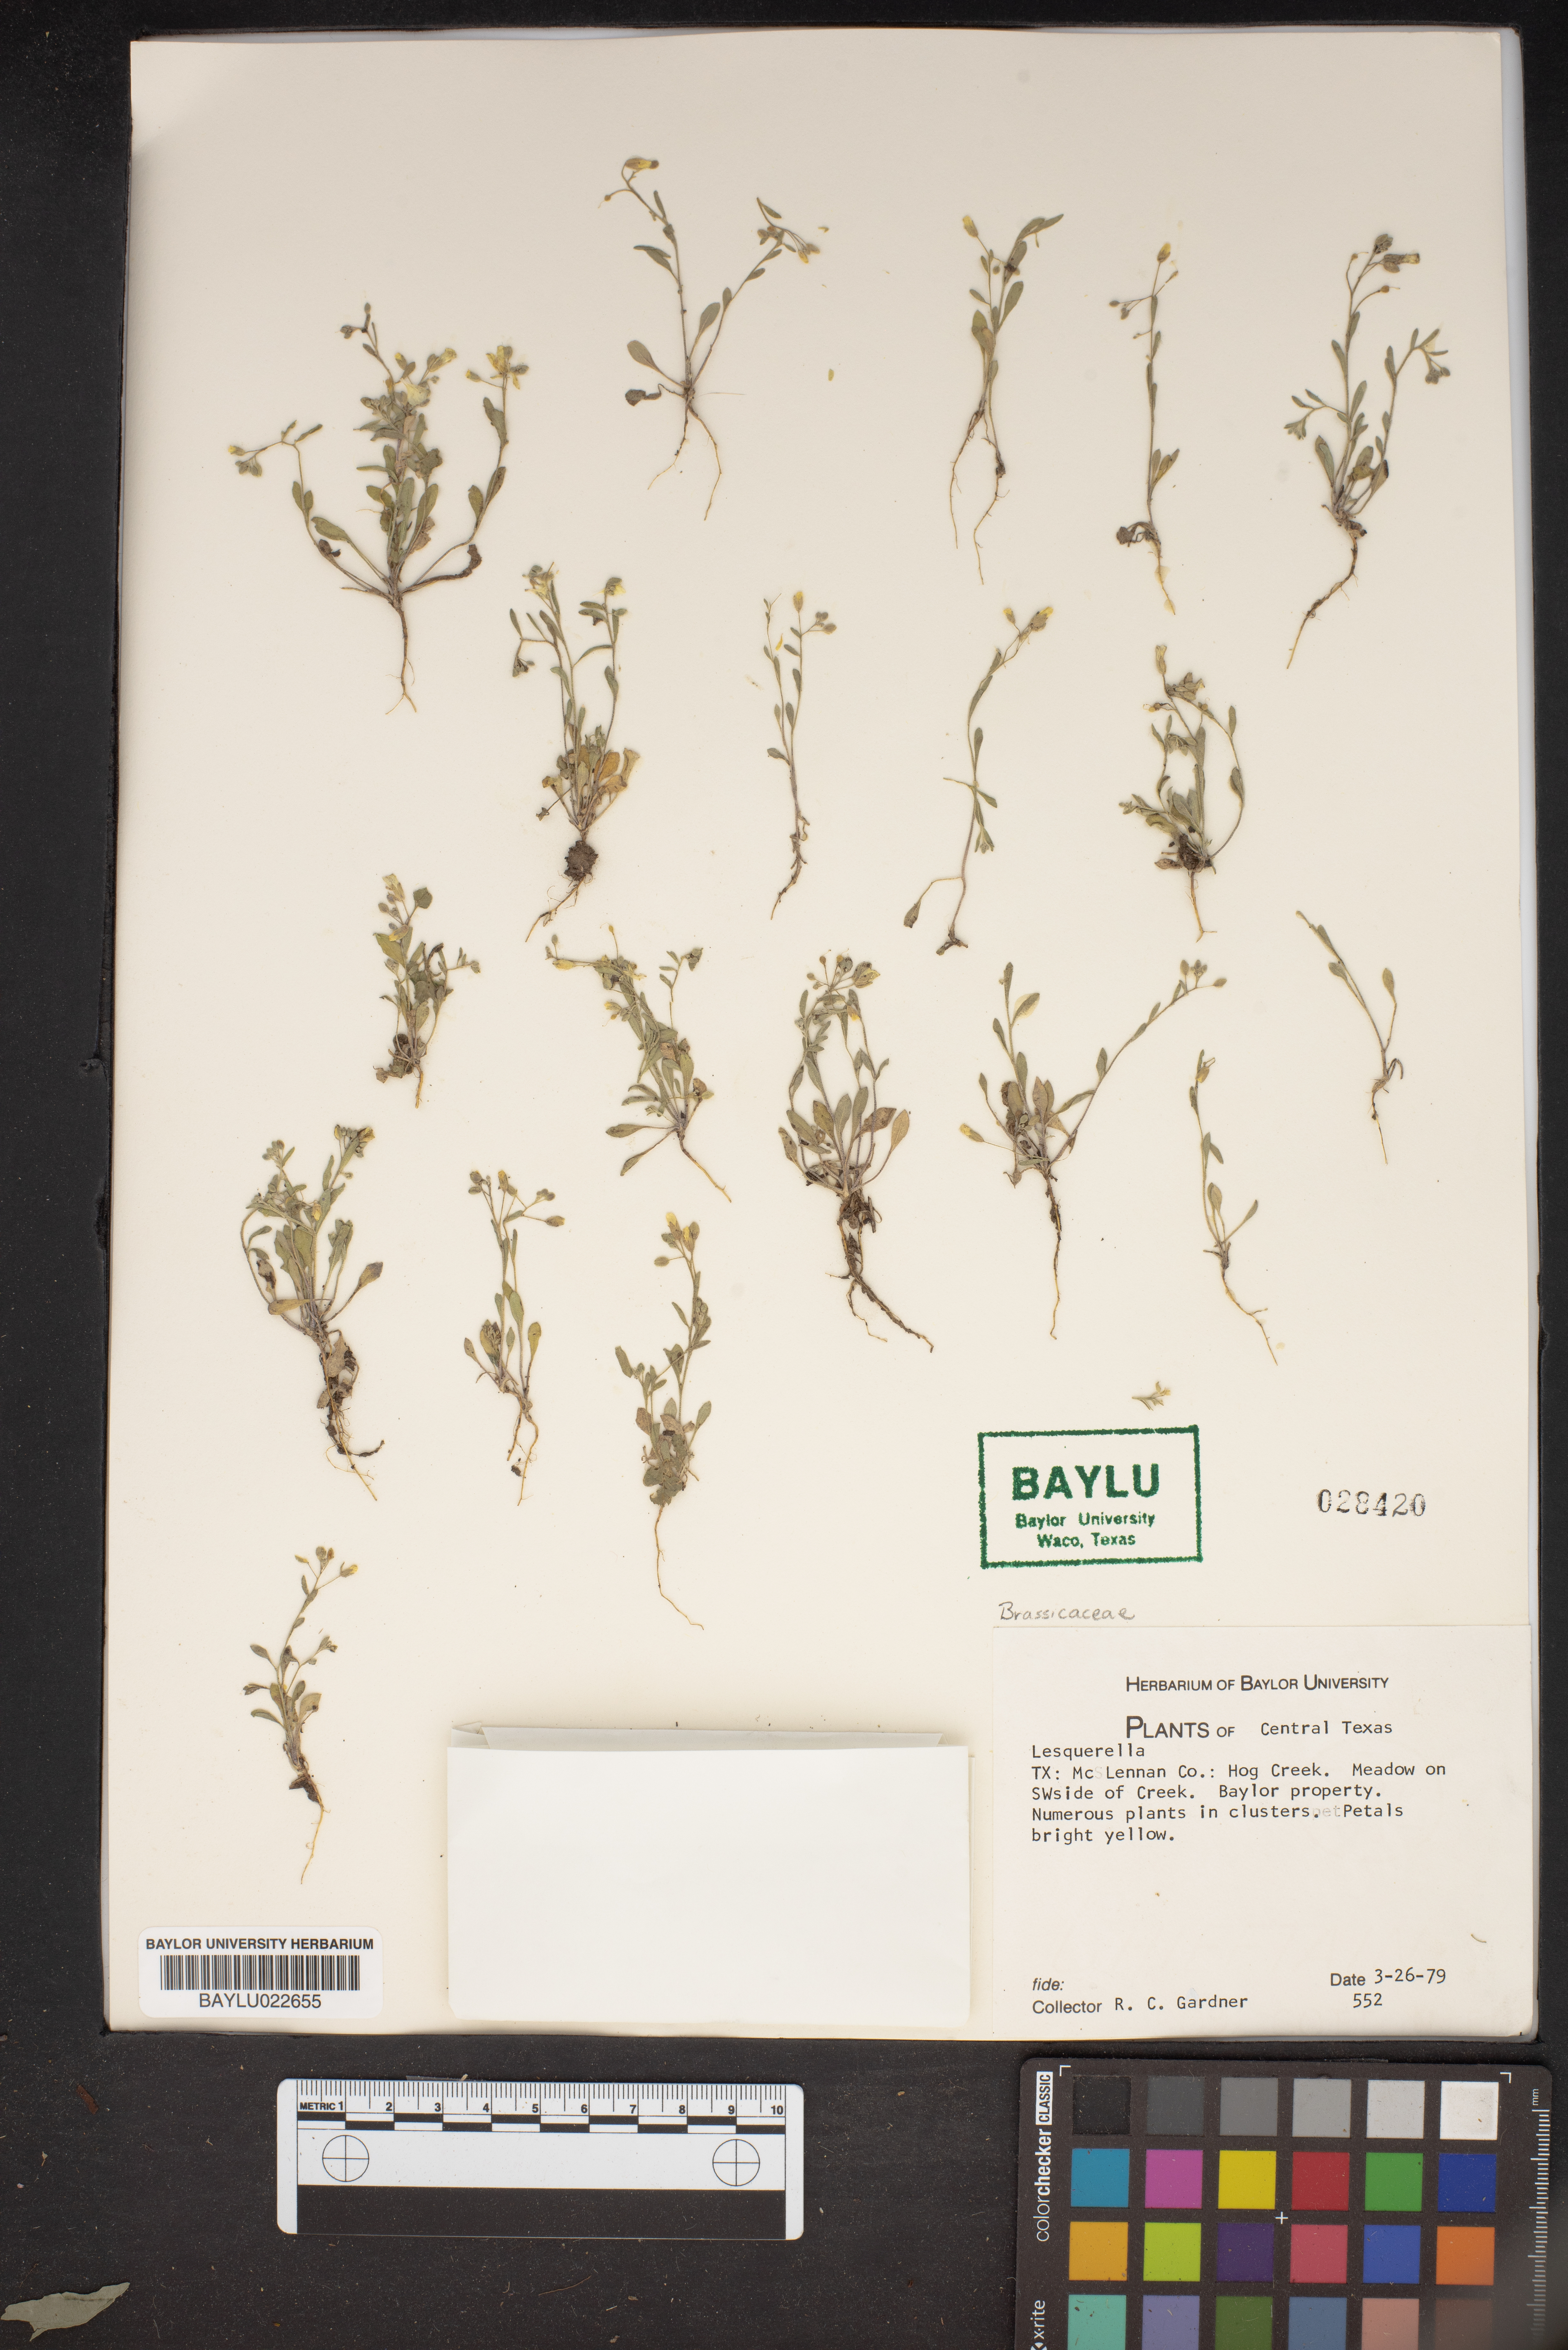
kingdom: Chromista
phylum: Cercozoa
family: Psammonobiotidae
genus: Lesquerella
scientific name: Lesquerella
